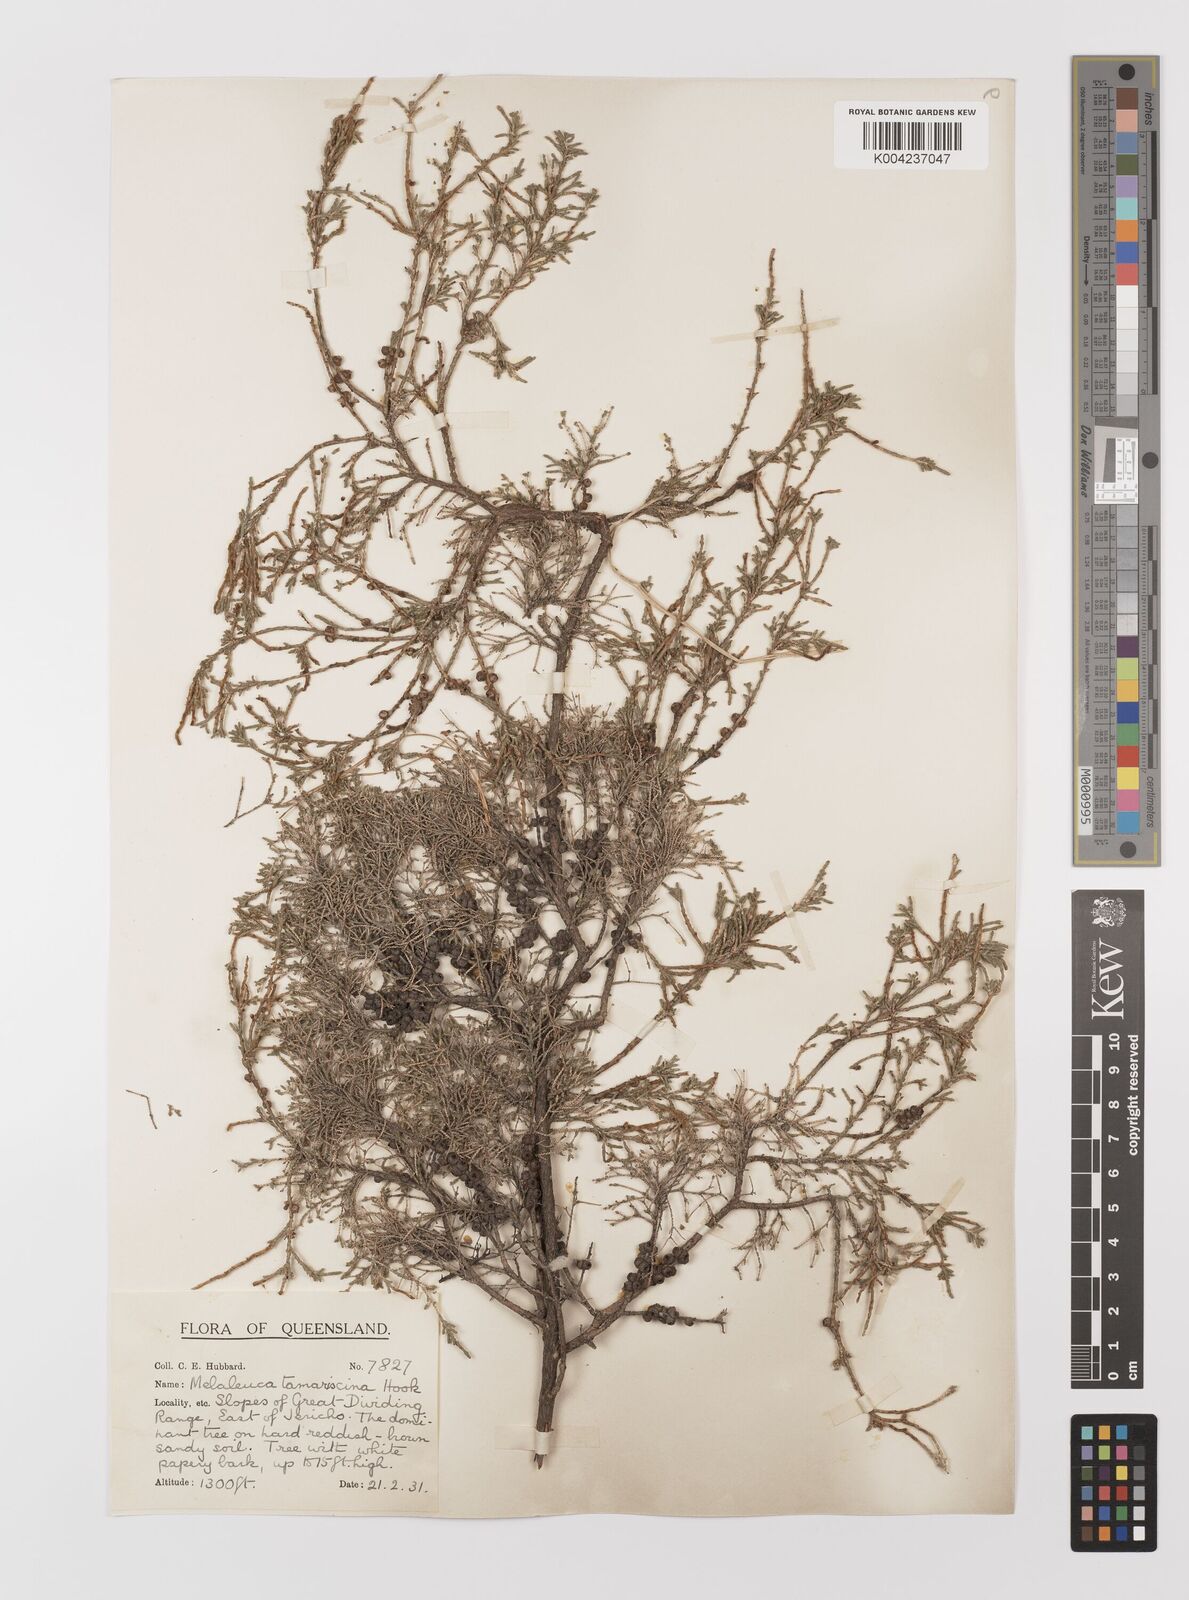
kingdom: Plantae
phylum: Tracheophyta
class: Magnoliopsida
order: Myrtales
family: Myrtaceae
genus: Melaleuca
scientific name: Melaleuca tamariscina
